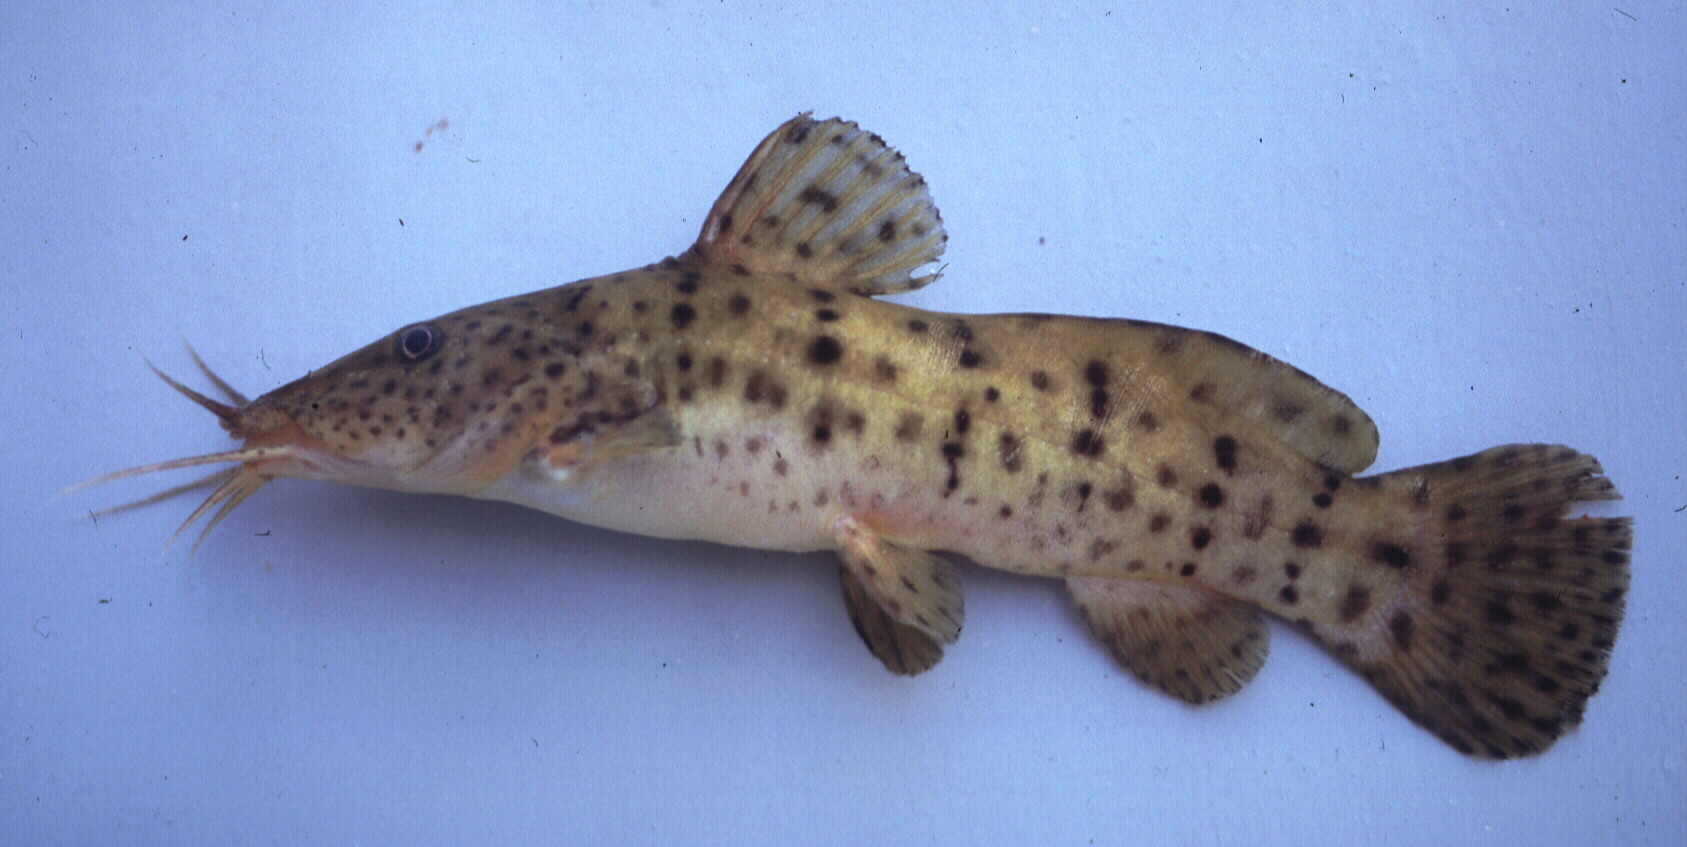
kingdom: Animalia
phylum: Chordata
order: Siluriformes
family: Claroteidae
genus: Parauchenoglanis
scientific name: Parauchenoglanis ngamensis
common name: Zambezi grunter
